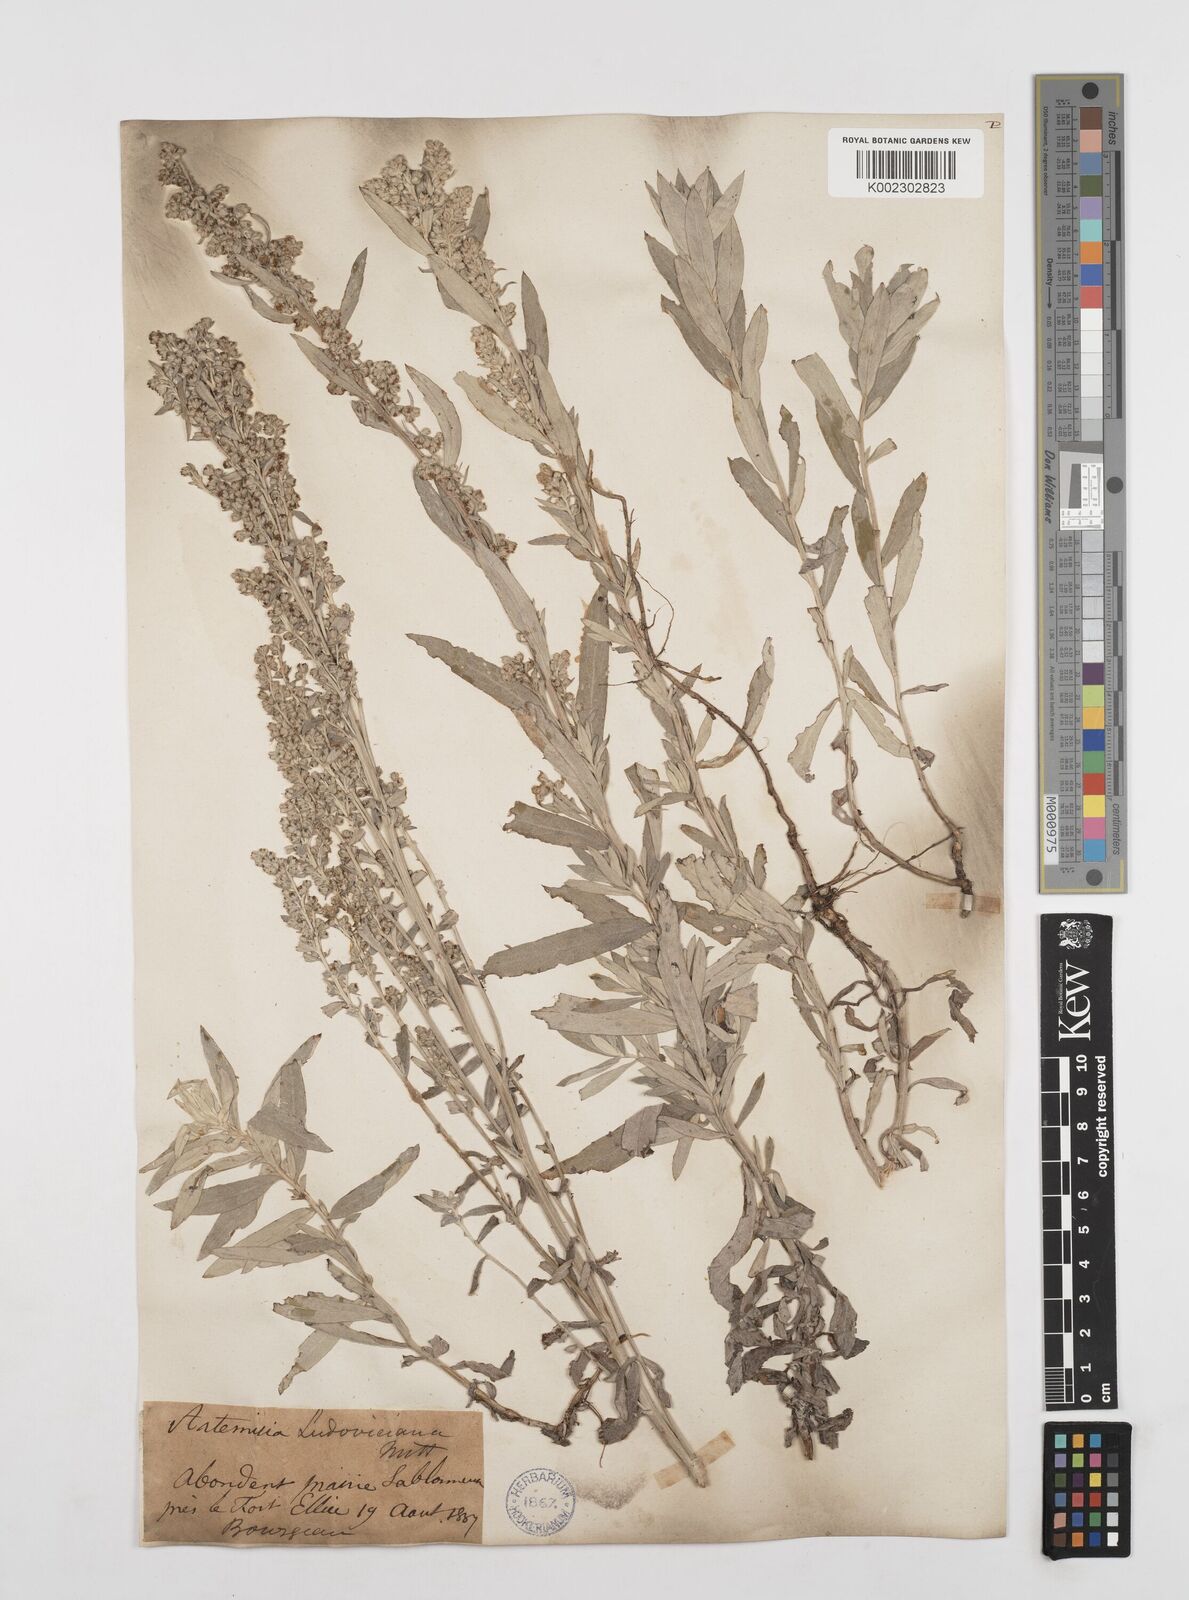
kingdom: Plantae
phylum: Tracheophyta
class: Magnoliopsida
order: Asterales
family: Asteraceae
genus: Artemisia
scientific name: Artemisia ludoviciana
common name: Western mugwort
